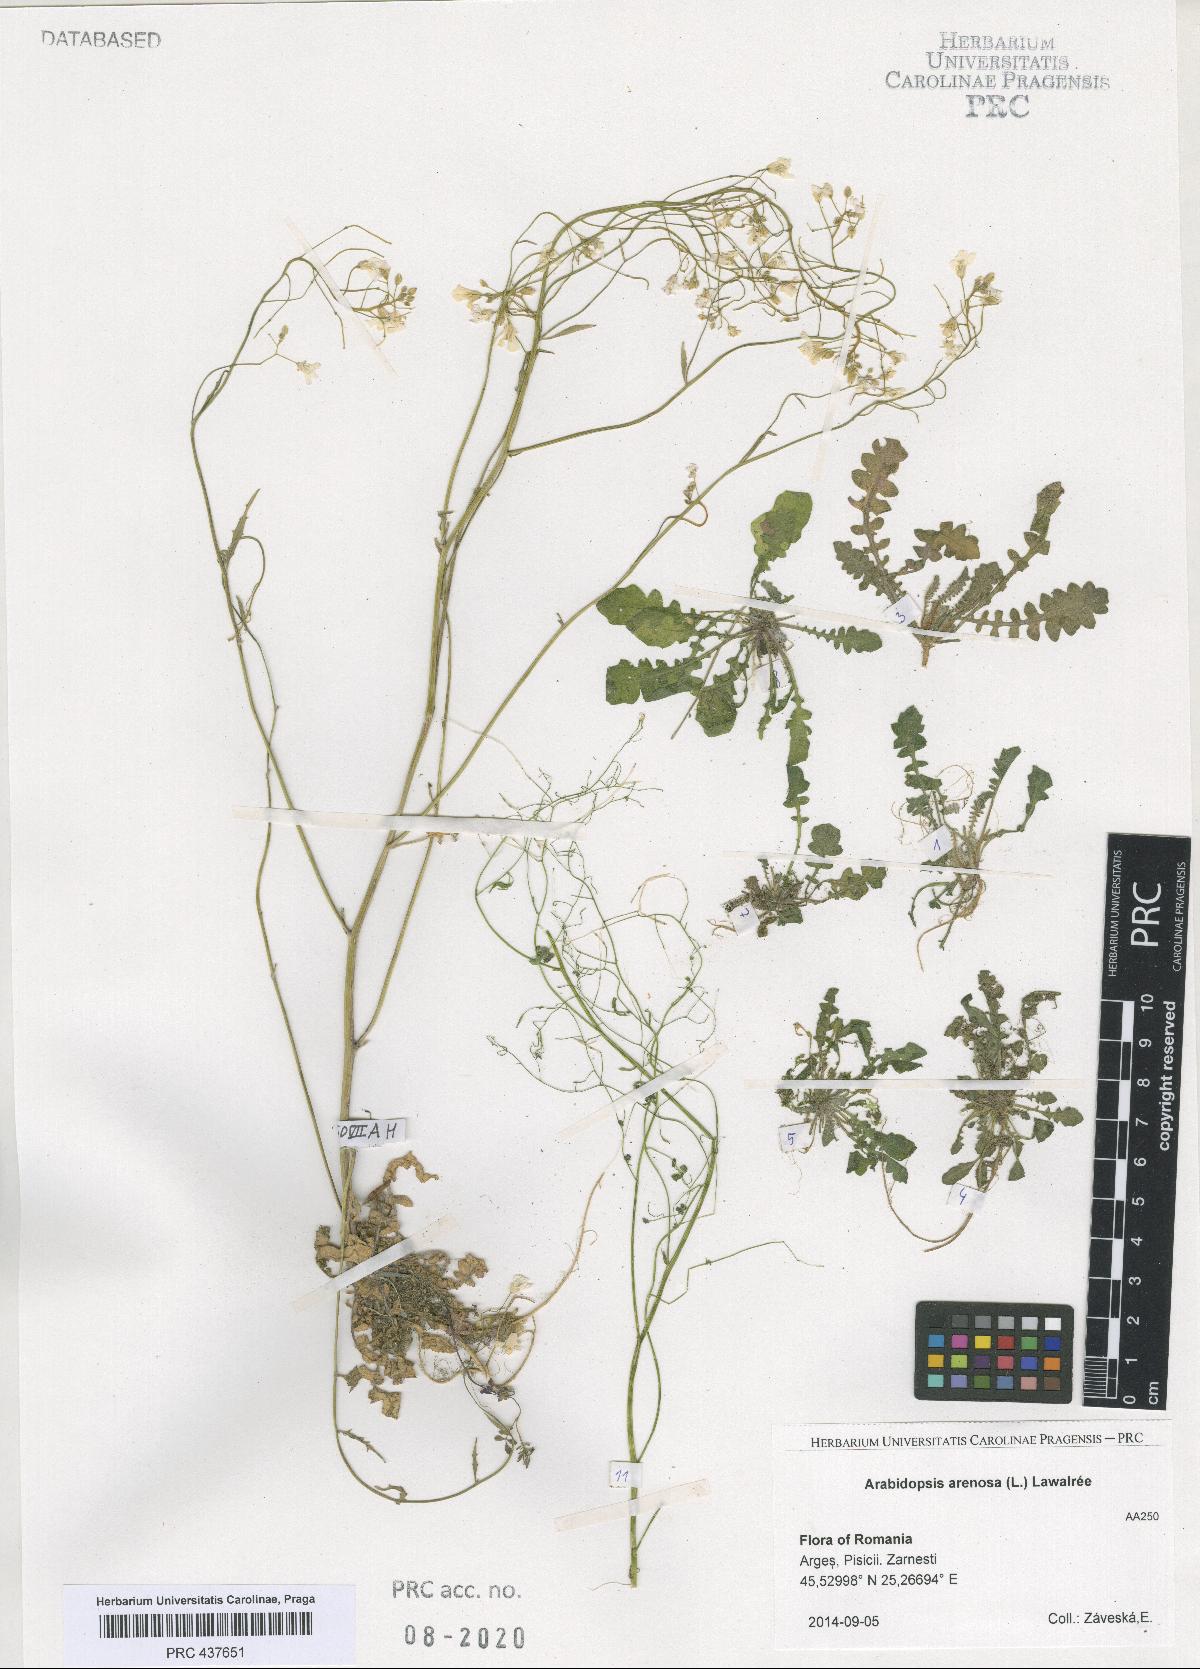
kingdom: Plantae
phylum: Tracheophyta
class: Magnoliopsida
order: Brassicales
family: Brassicaceae
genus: Arabidopsis
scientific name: Arabidopsis arenosa
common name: Sand rock-cress
